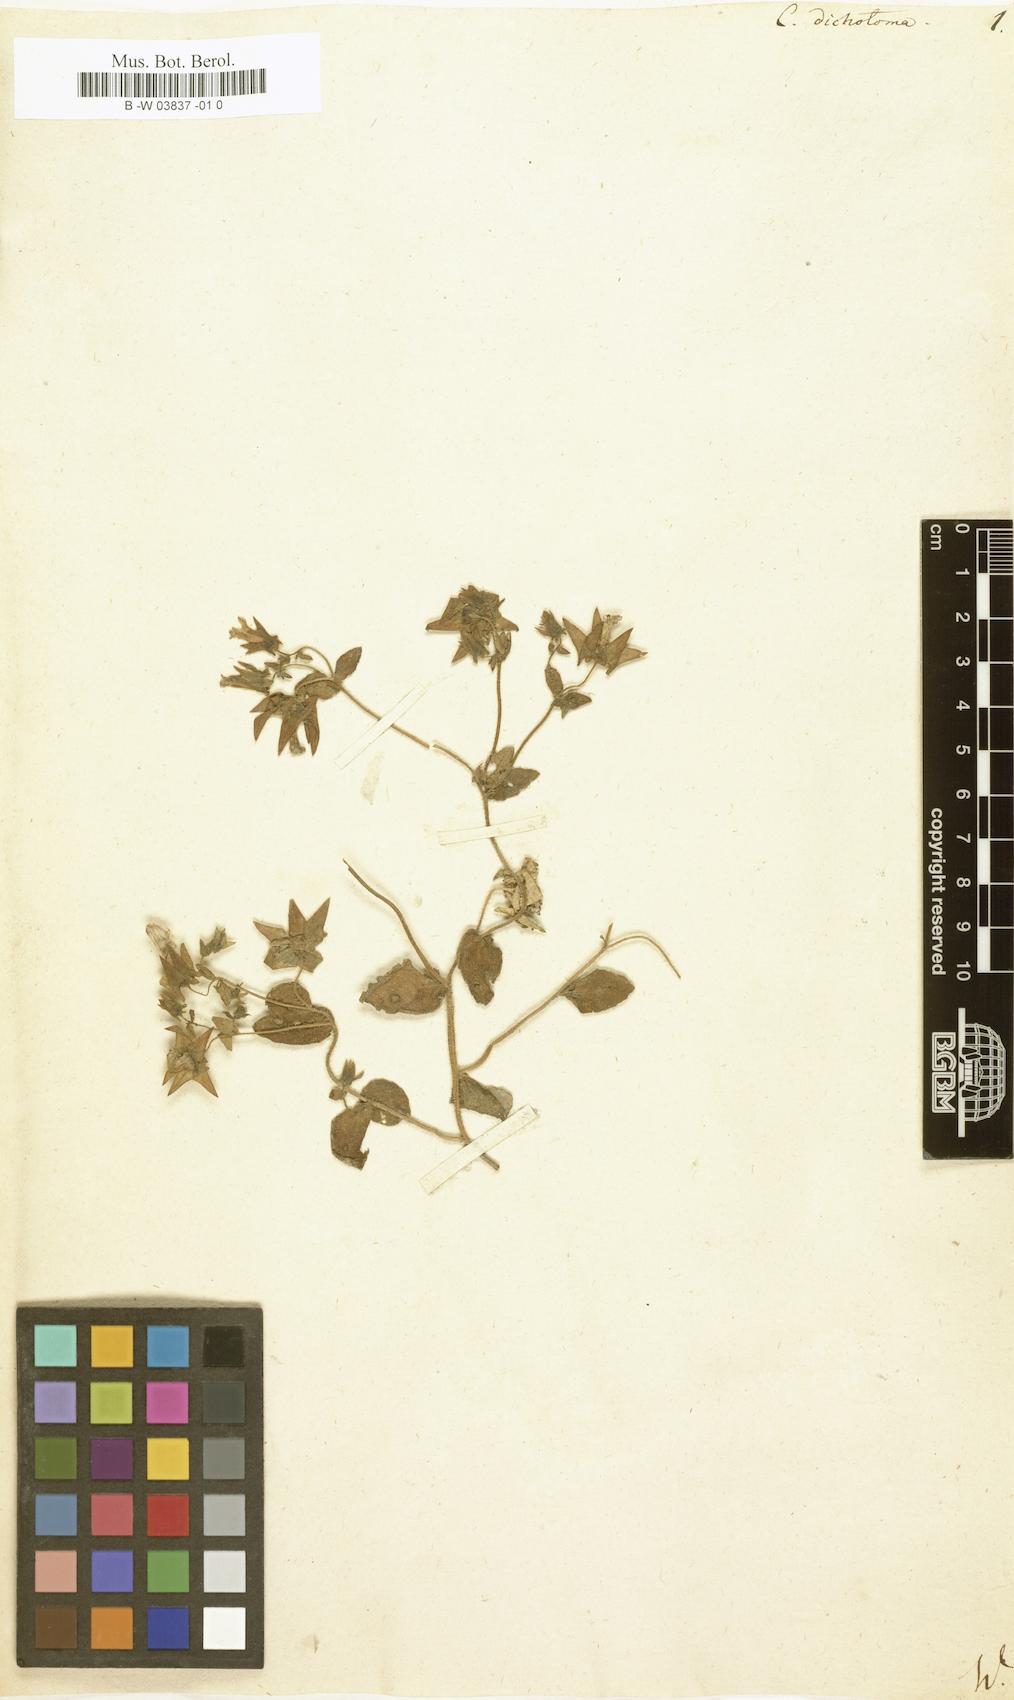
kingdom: Plantae
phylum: Tracheophyta
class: Magnoliopsida
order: Asterales
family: Campanulaceae
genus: Campanula
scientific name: Campanula dichotoma
